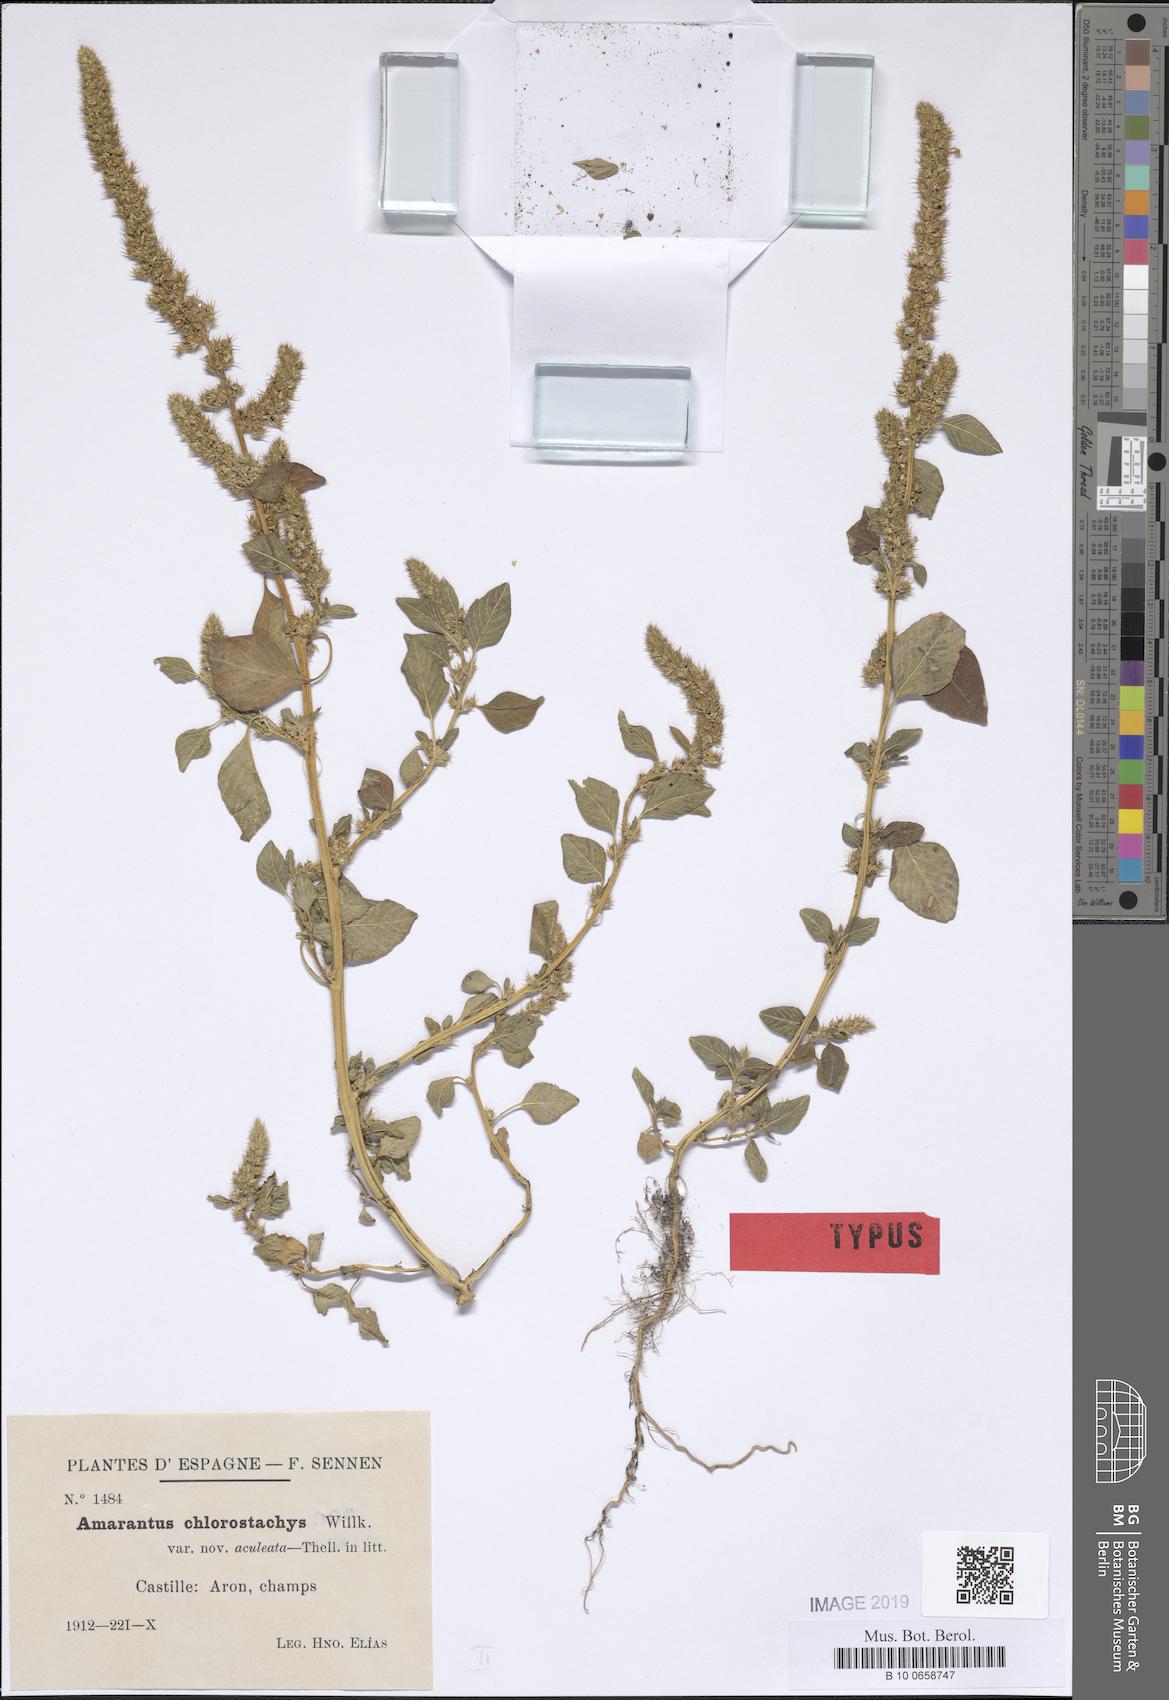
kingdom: Plantae
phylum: Tracheophyta
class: Magnoliopsida
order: Caryophyllales
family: Amaranthaceae
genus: Amaranthus
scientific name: Amaranthus hybridus
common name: Green amaranth
